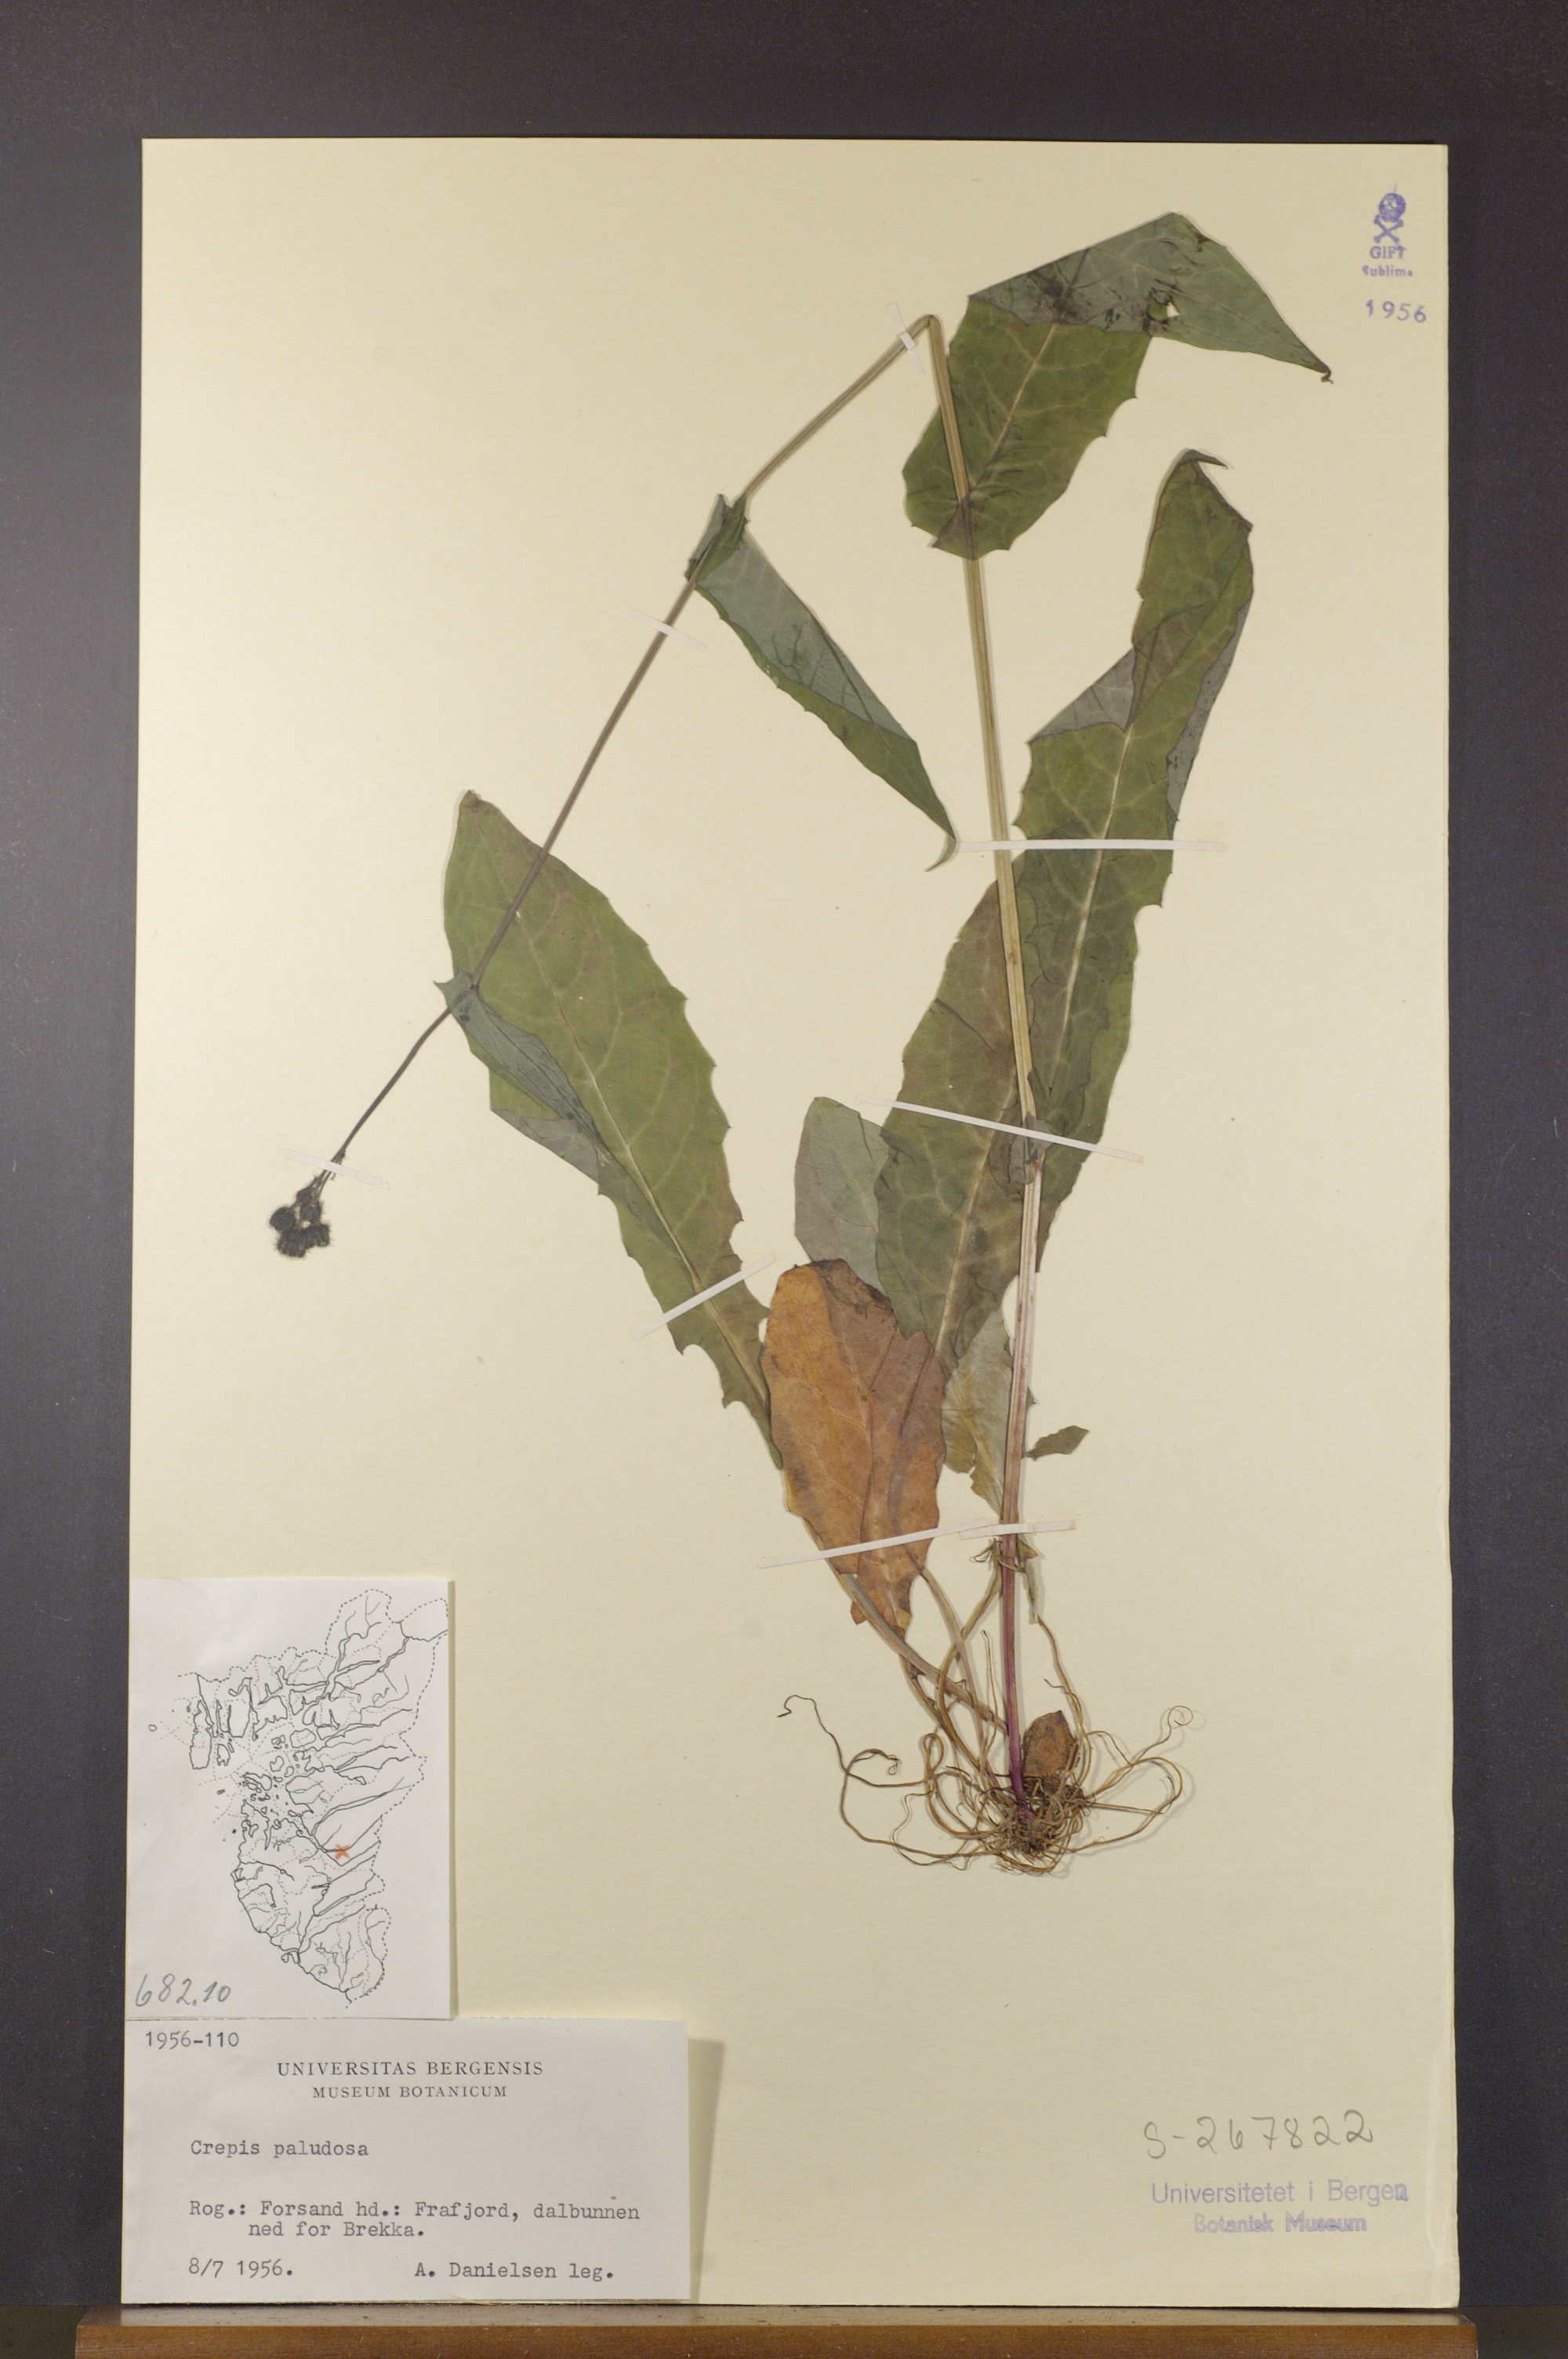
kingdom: Plantae
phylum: Tracheophyta
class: Magnoliopsida
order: Asterales
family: Asteraceae
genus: Crepis
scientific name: Crepis paludosa
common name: Marsh hawk's-beard
